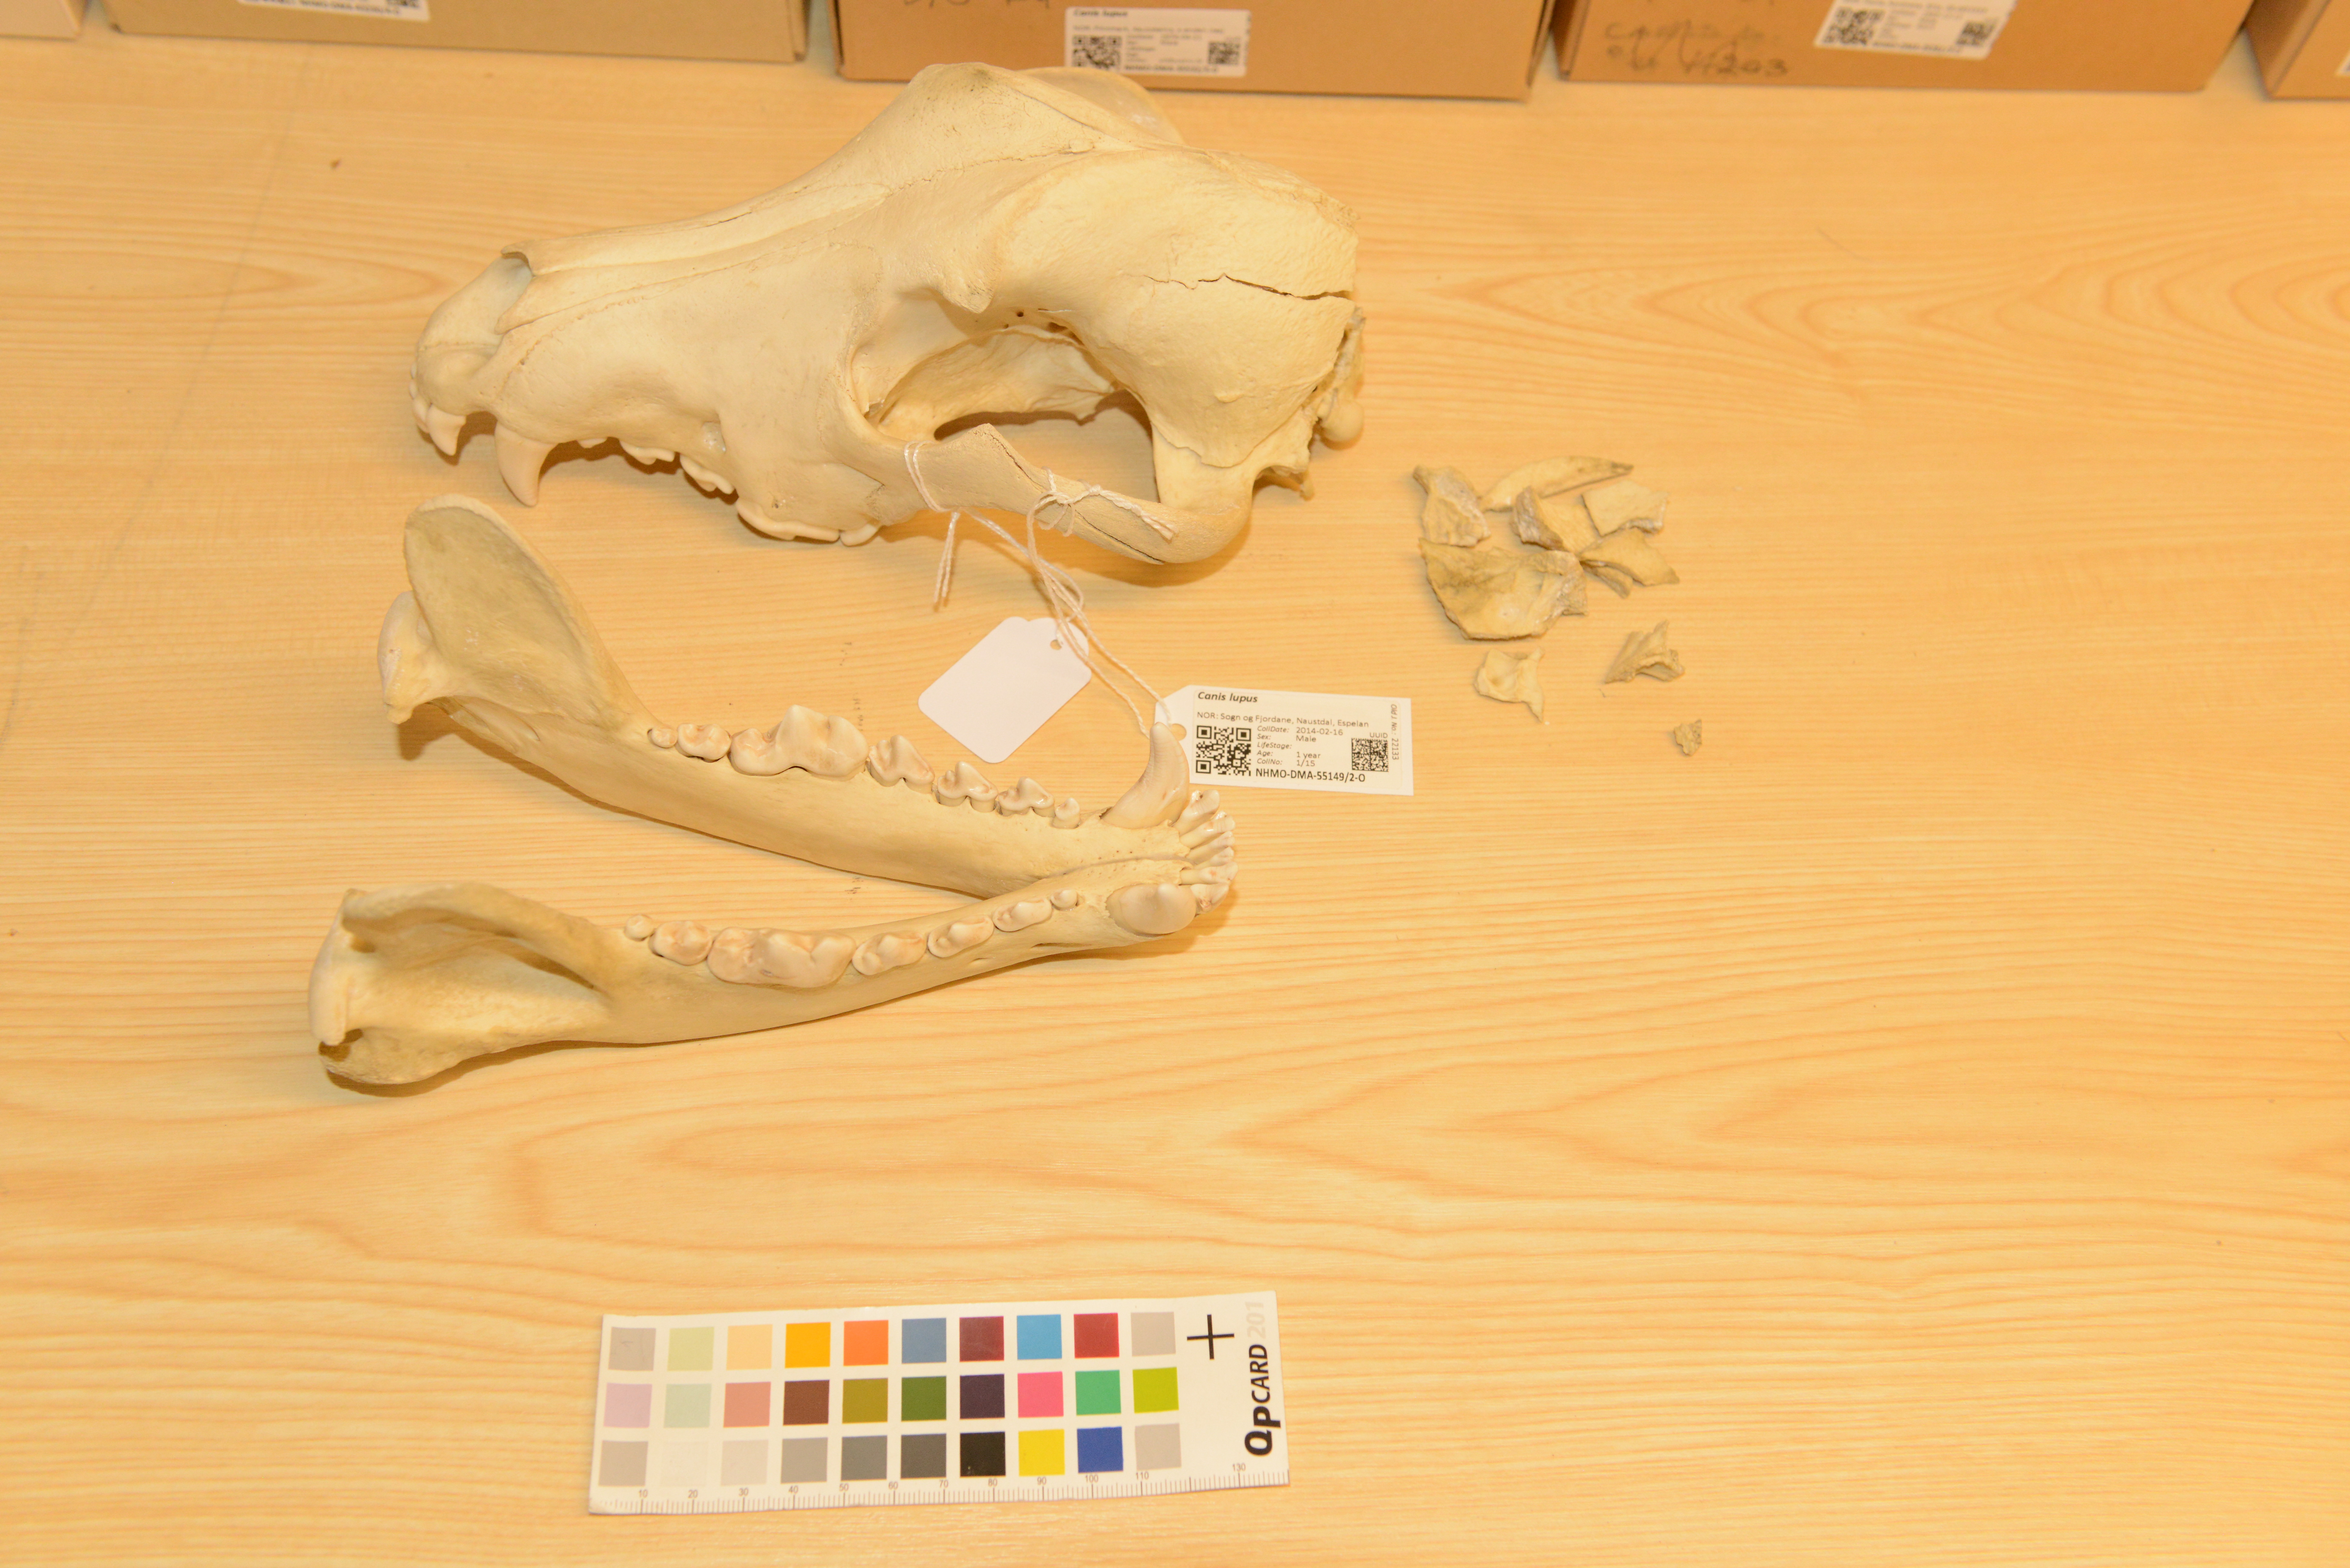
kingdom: Animalia
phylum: Chordata
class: Mammalia
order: Carnivora
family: Canidae
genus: Canis
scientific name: Canis lupus
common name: Gray wolf
